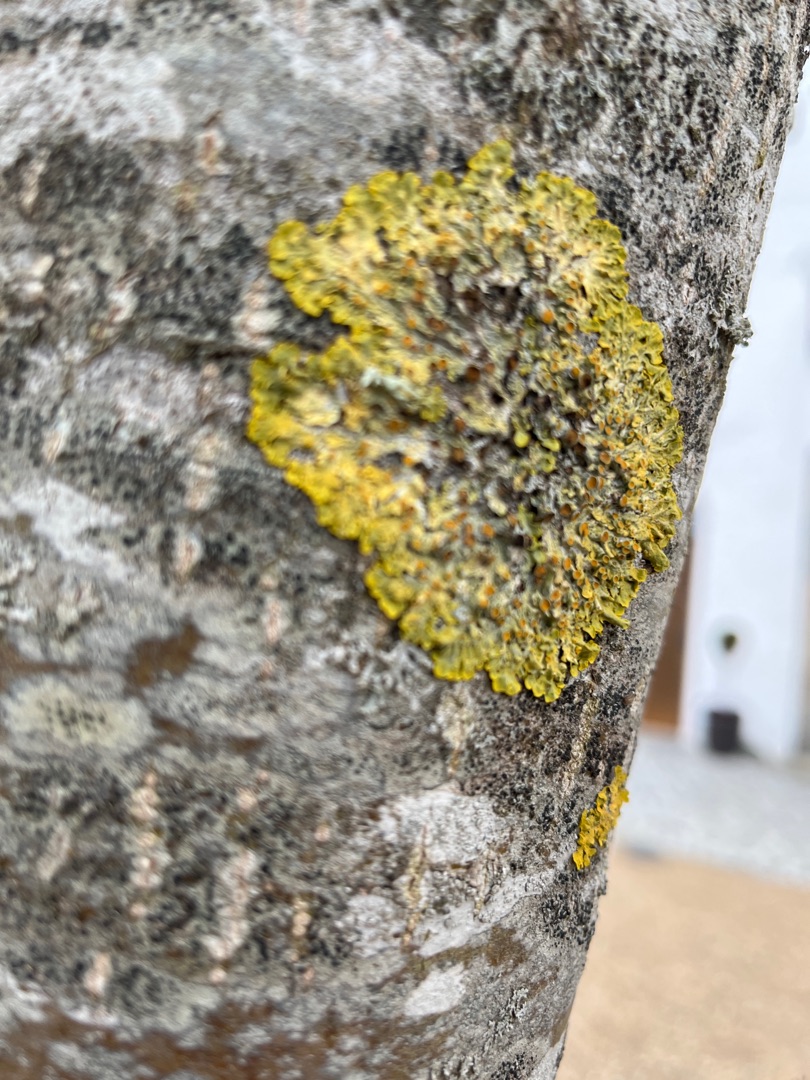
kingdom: Fungi
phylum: Ascomycota
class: Lecanoromycetes
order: Teloschistales
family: Teloschistaceae
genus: Xanthoria
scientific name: Xanthoria parietina
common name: Almindelig væggelav
